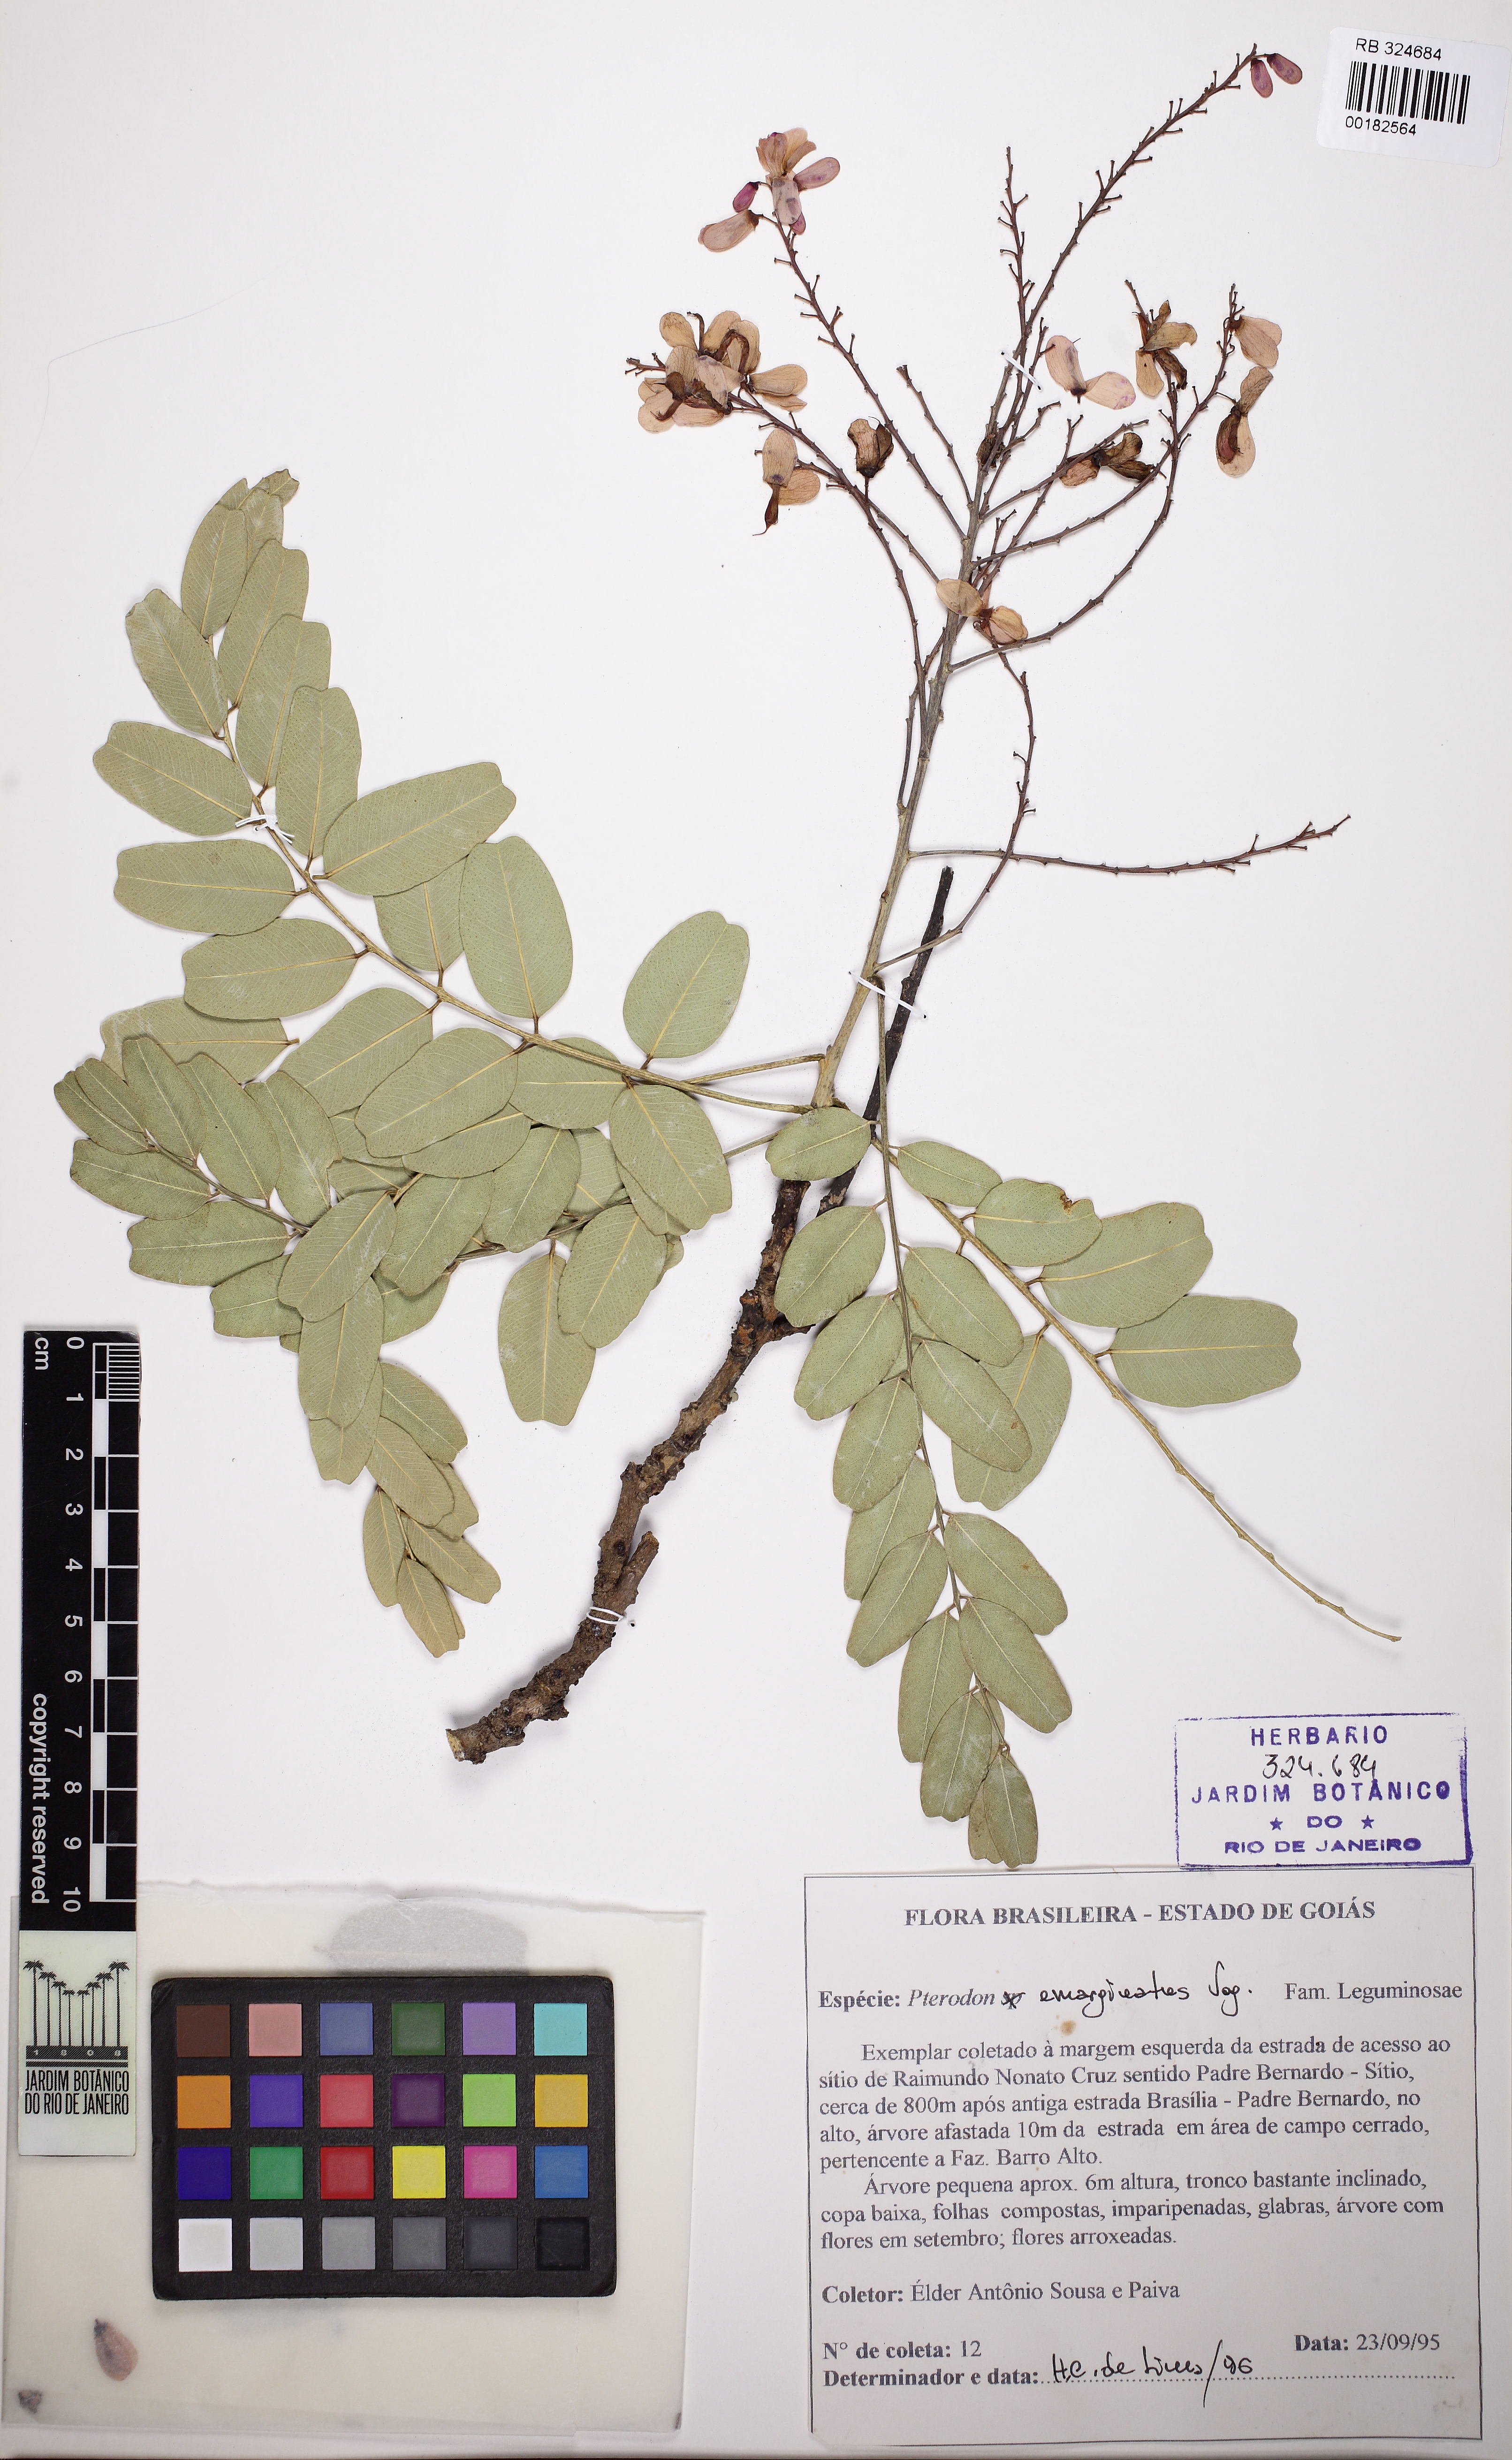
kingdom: Plantae
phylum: Tracheophyta
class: Magnoliopsida
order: Fabales
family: Fabaceae
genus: Pterodon
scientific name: Pterodon emarginatus
